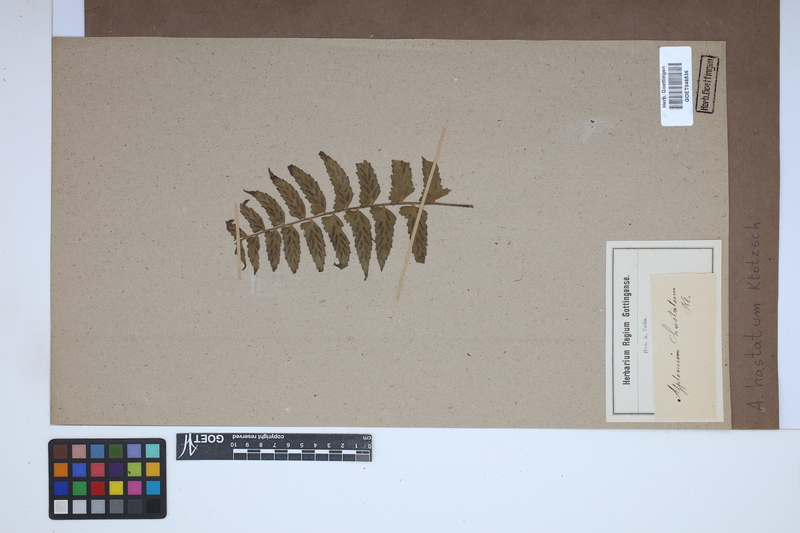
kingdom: Plantae
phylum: Tracheophyta
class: Polypodiopsida
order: Polypodiales
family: Aspleniaceae
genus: Asplenium
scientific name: Asplenium hastatum
